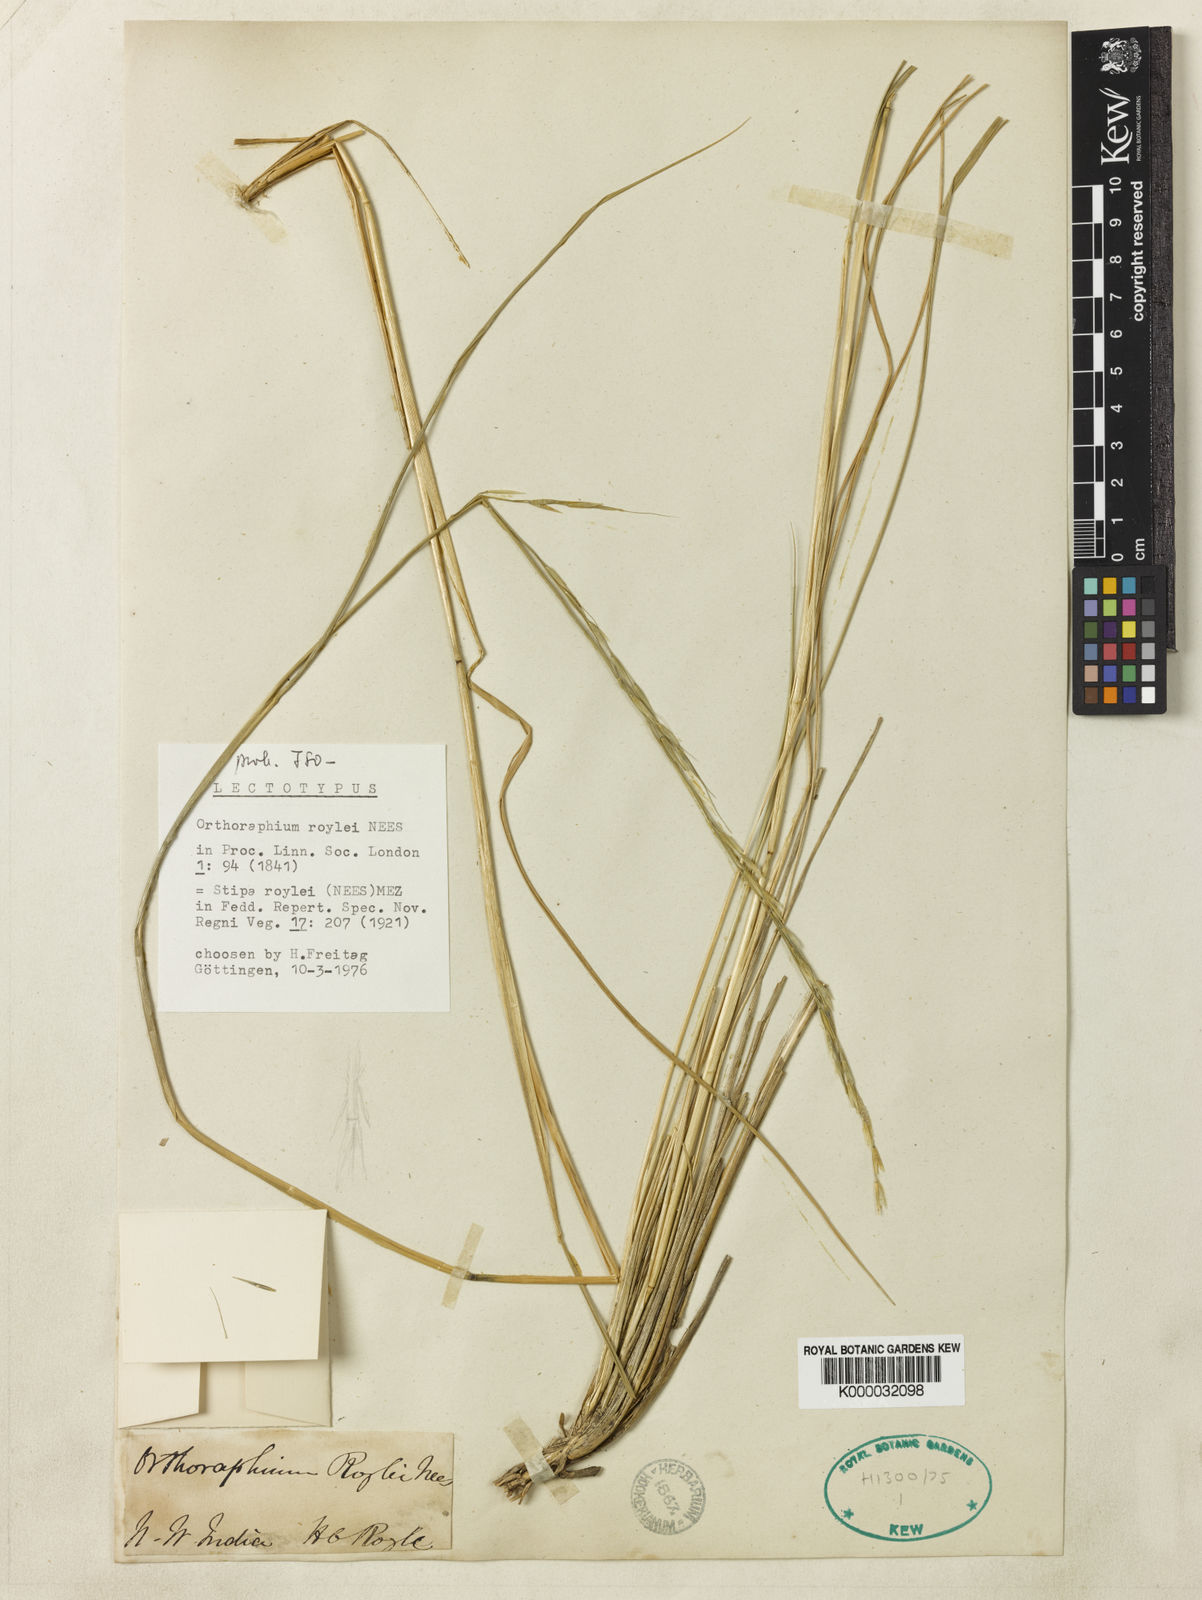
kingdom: Plantae
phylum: Tracheophyta
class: Liliopsida
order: Poales
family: Poaceae
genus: Stipa
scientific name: Stipa
